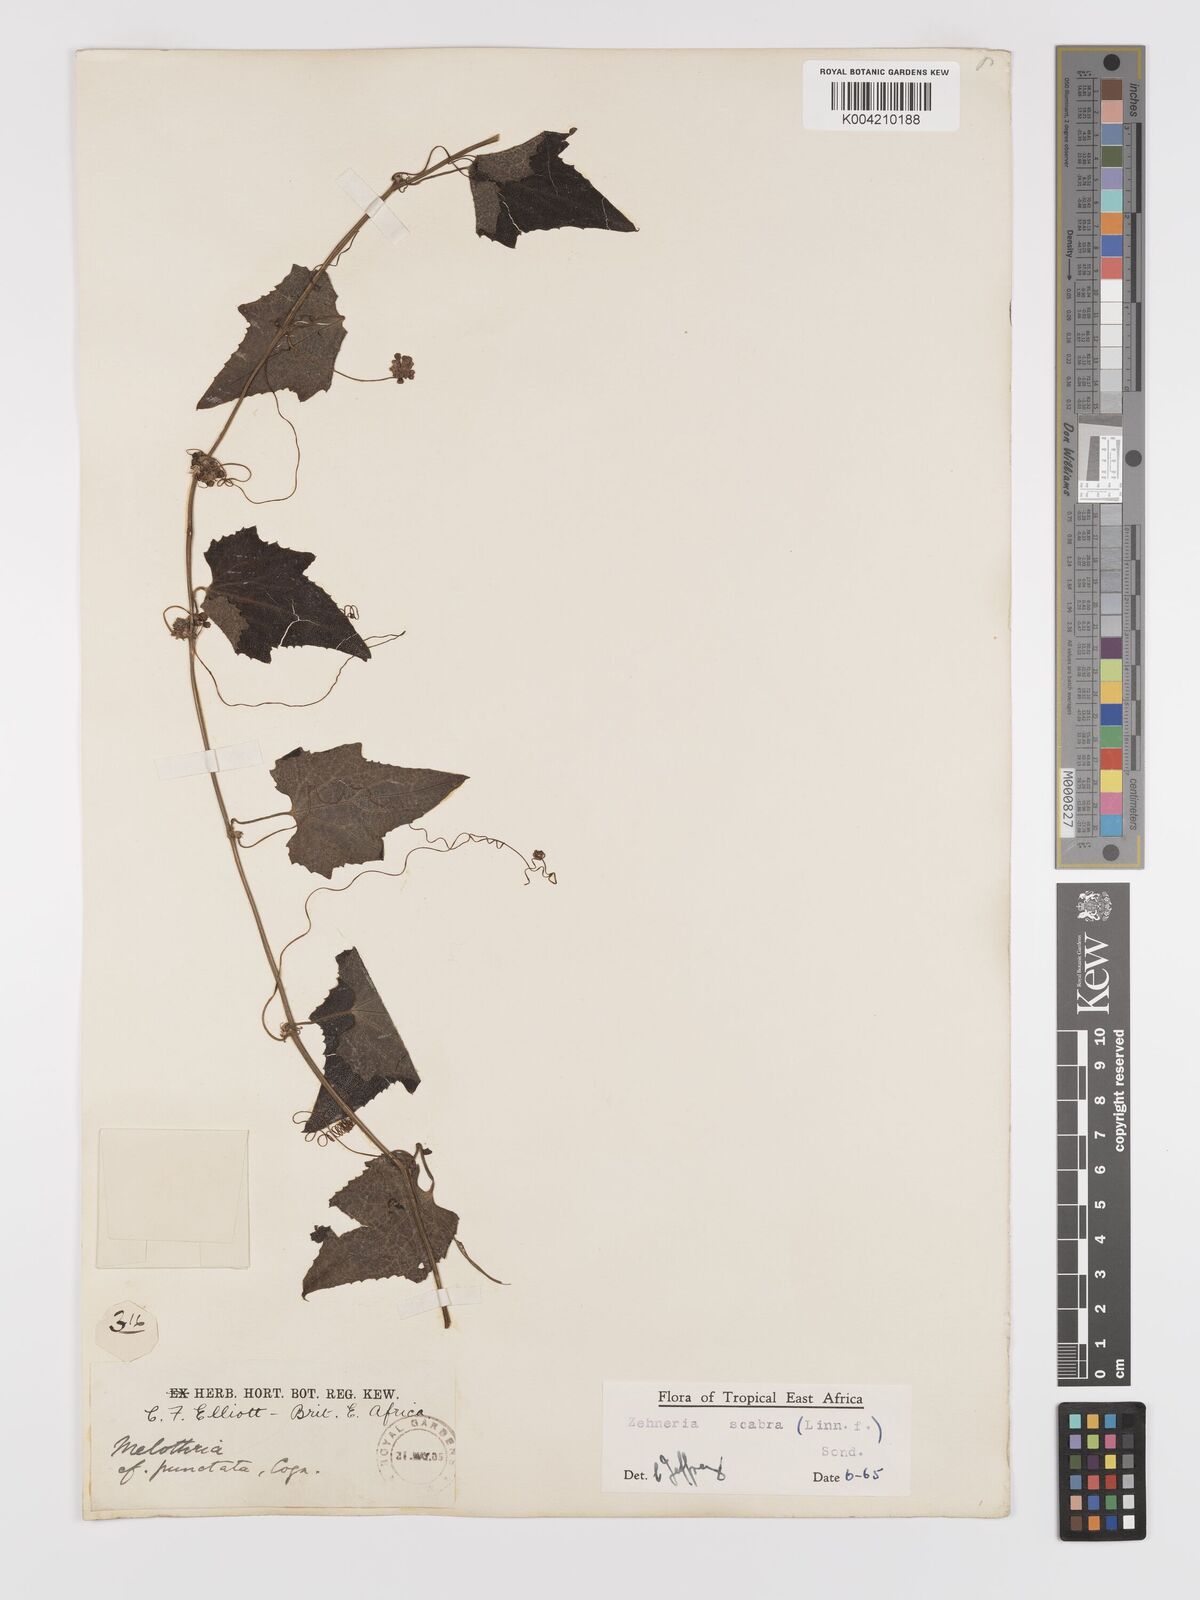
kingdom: Plantae
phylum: Tracheophyta
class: Magnoliopsida
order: Cucurbitales
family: Cucurbitaceae
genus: Zehneria
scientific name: Zehneria scabra
